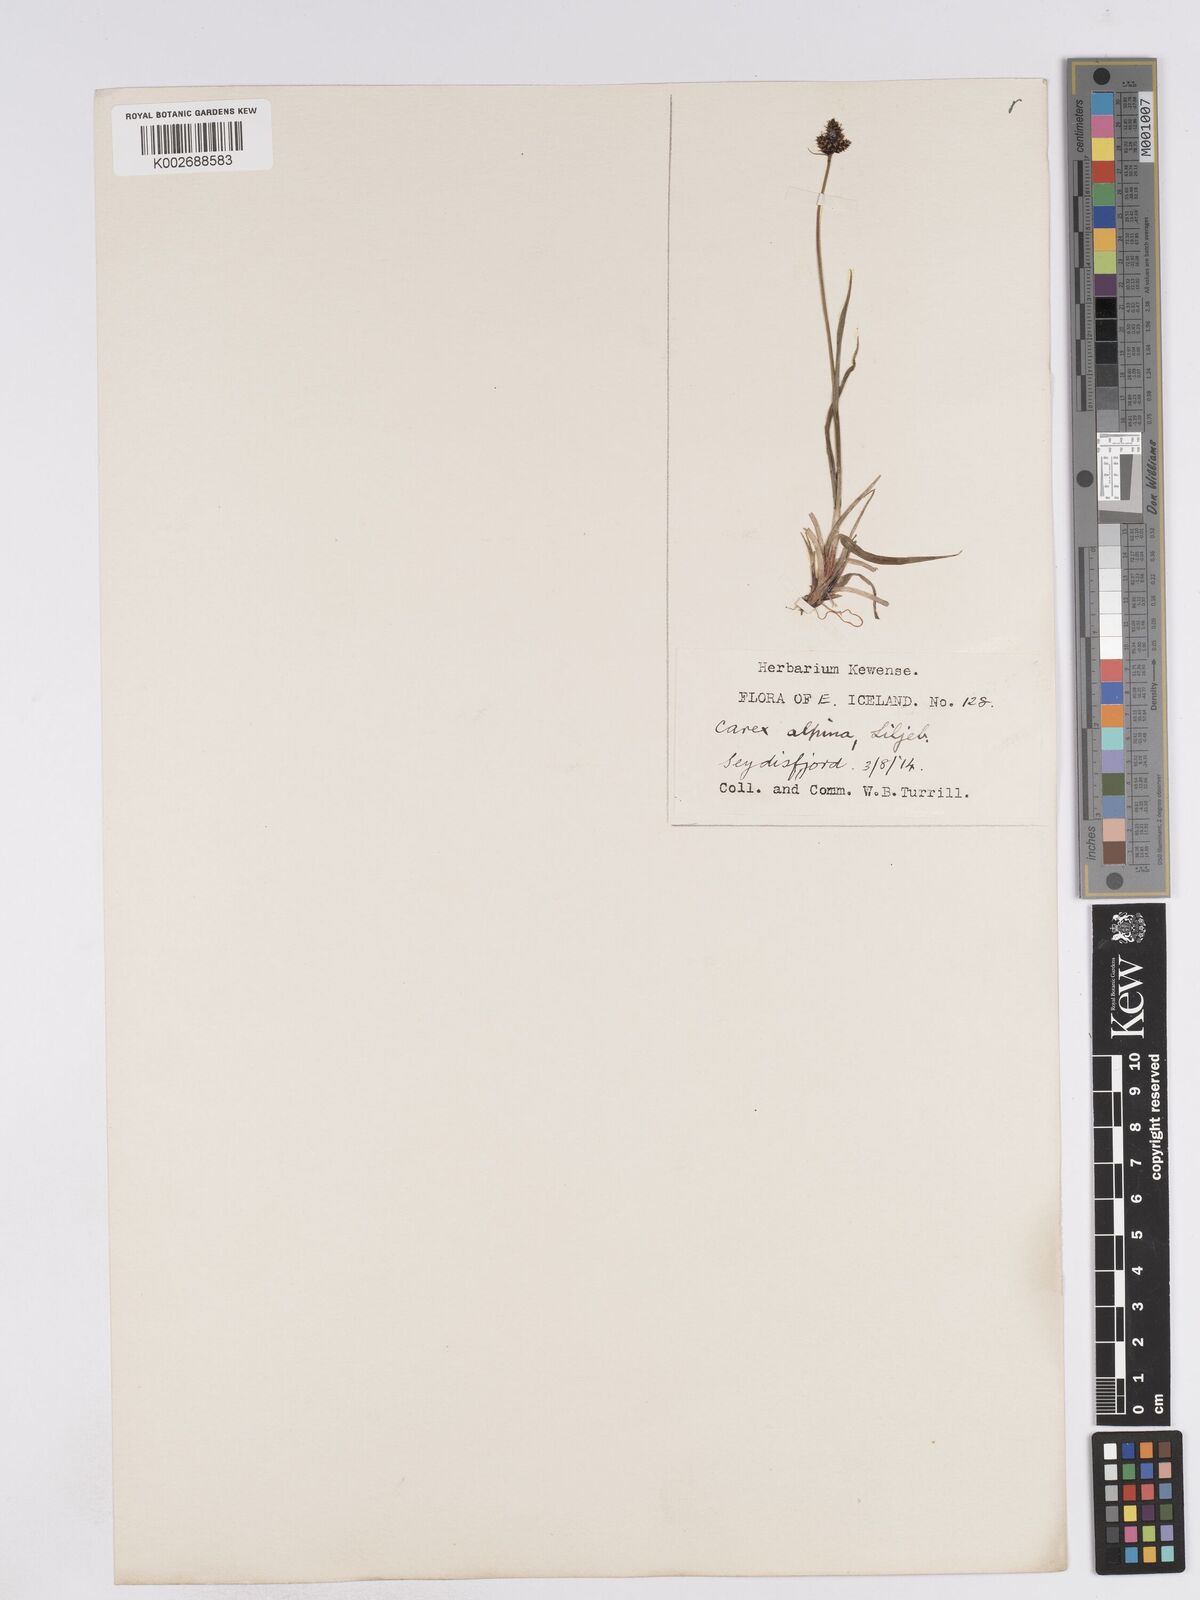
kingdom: Plantae
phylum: Tracheophyta
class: Liliopsida
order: Poales
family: Cyperaceae
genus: Carex
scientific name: Carex norvegica
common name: Close-headed alpine-sedge
